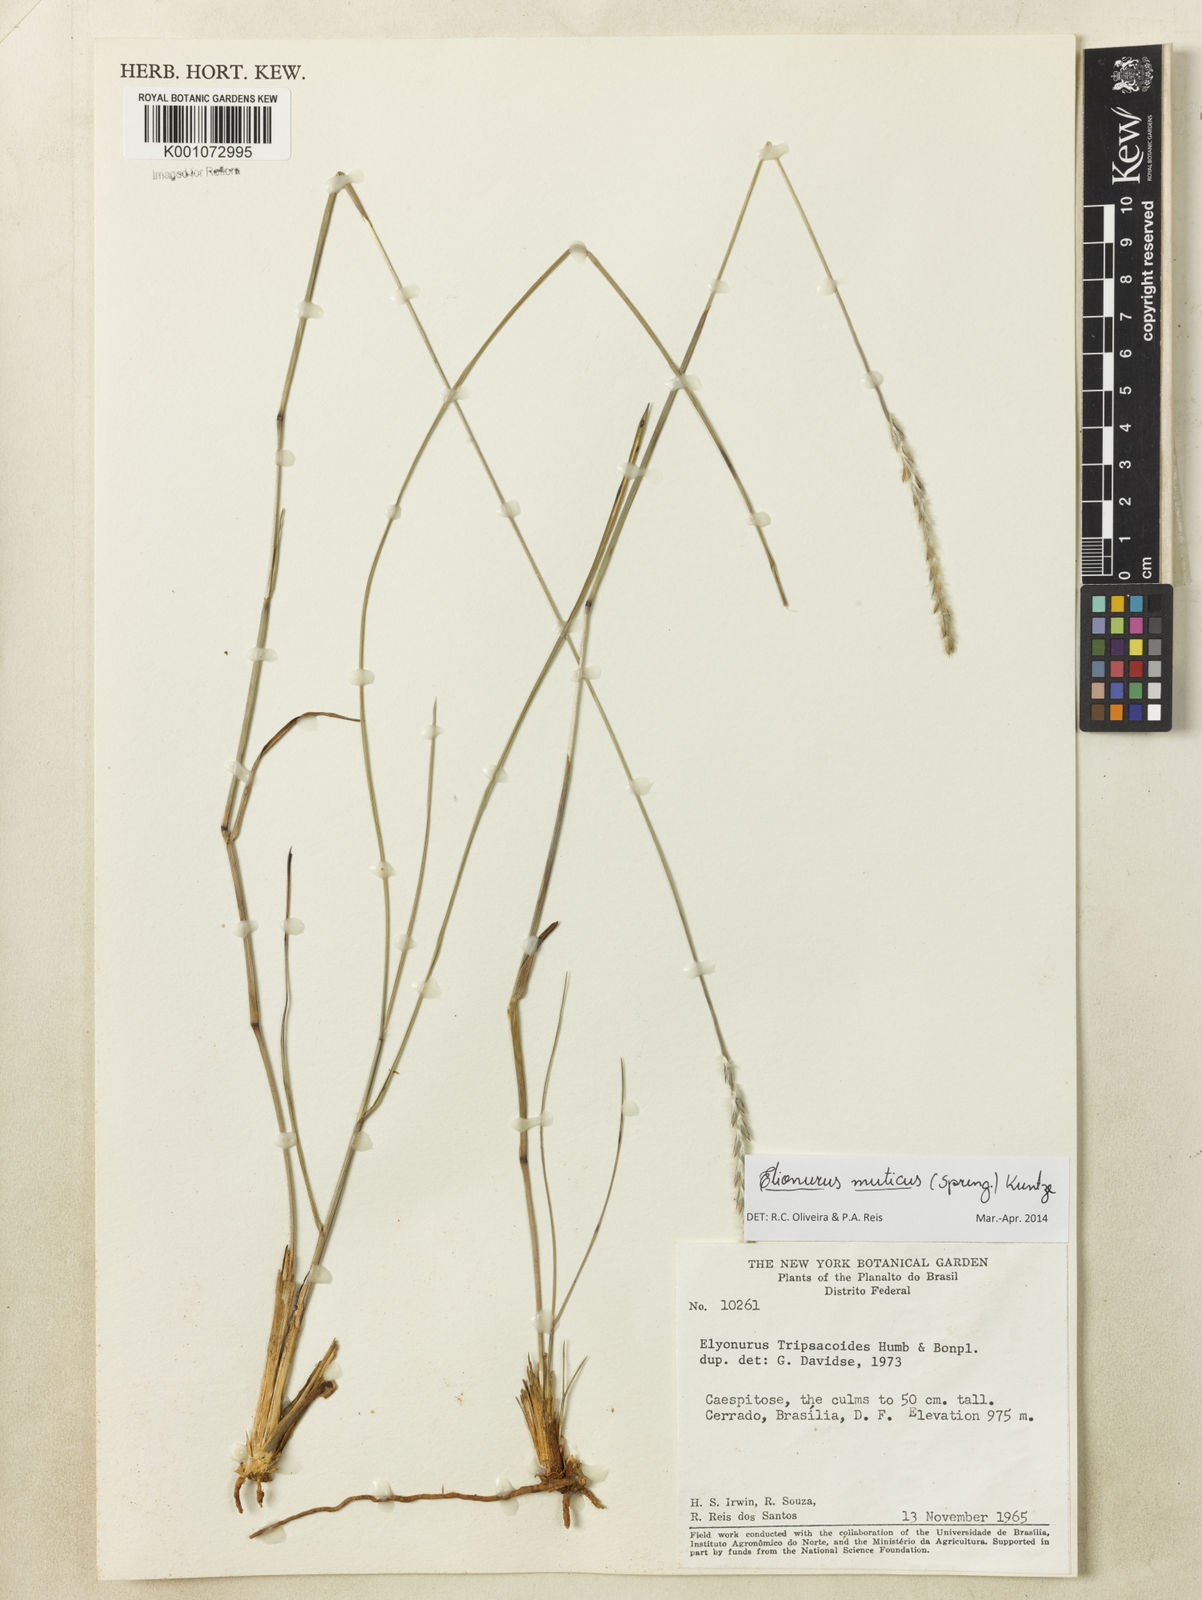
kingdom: Plantae
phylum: Tracheophyta
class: Liliopsida
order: Poales
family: Poaceae
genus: Elionurus
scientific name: Elionurus muticus
